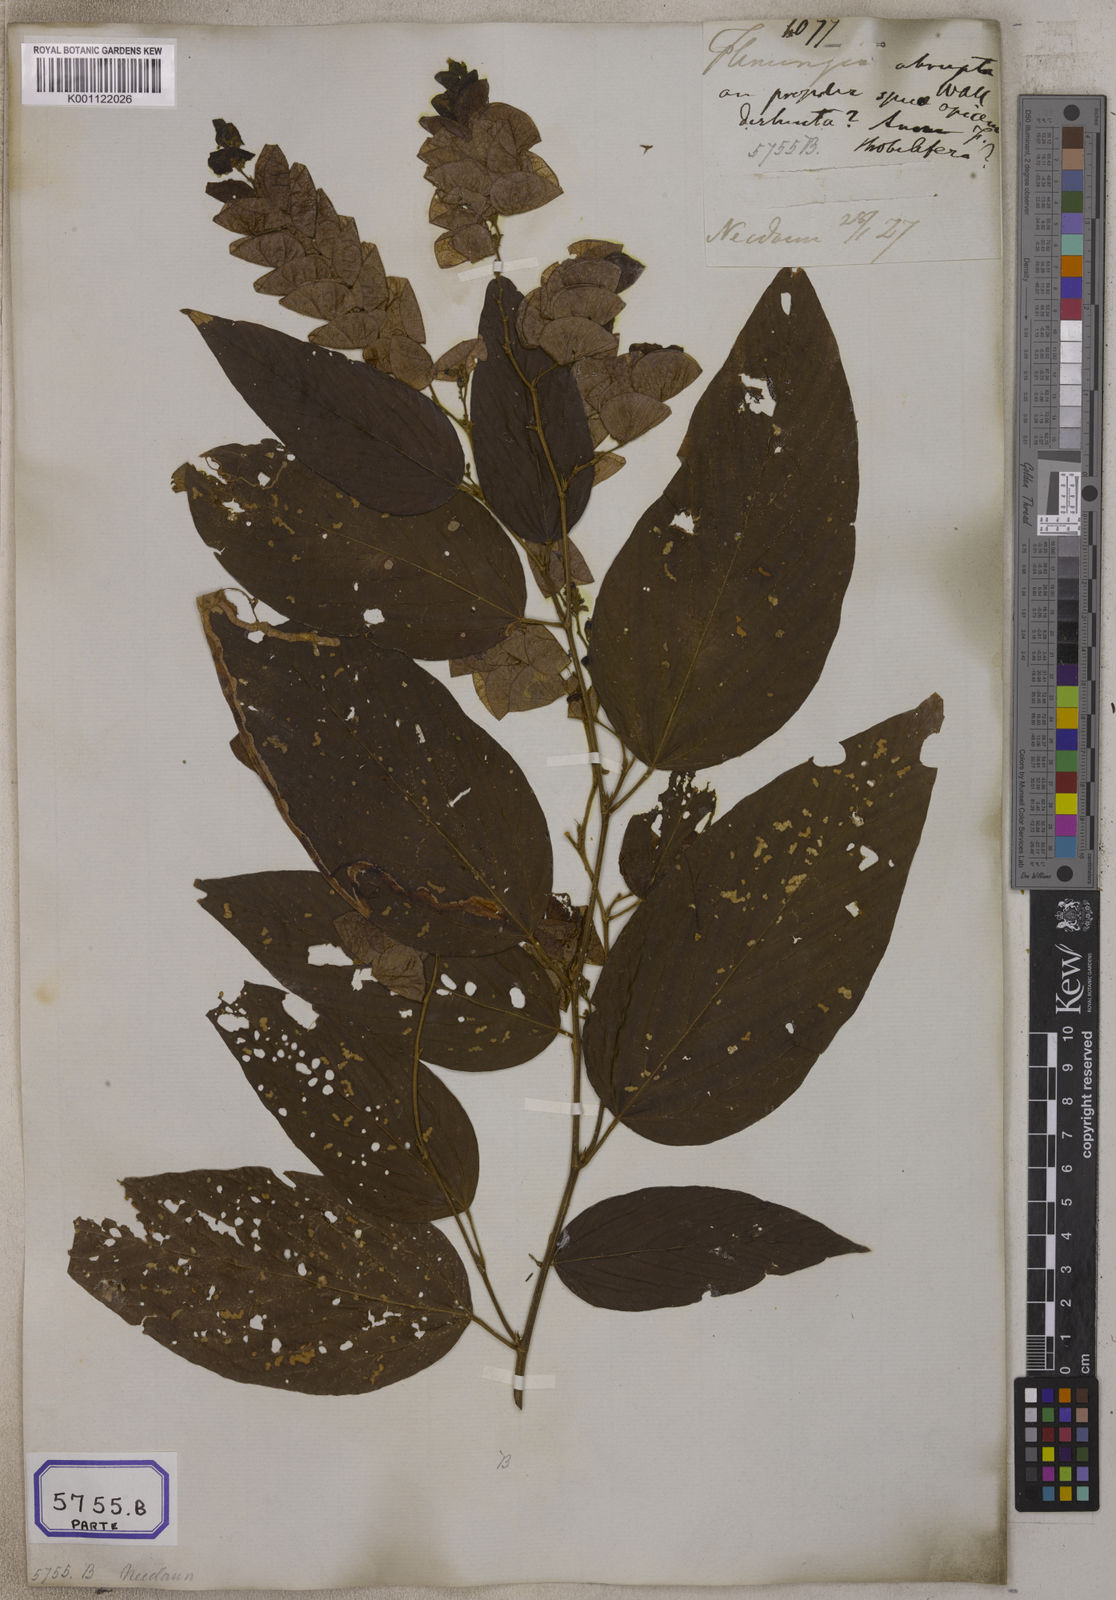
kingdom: Plantae
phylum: Tracheophyta
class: Magnoliopsida
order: Fabales
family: Fabaceae
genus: Flemingia
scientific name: Flemingia
